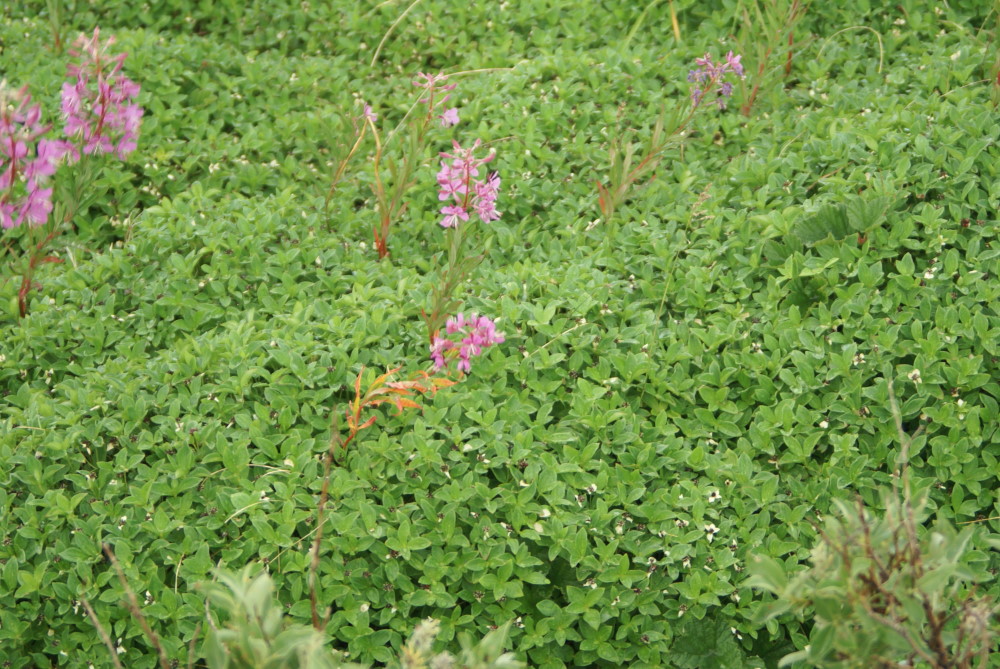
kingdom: Plantae
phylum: Tracheophyta
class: Magnoliopsida
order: Cornales
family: Cornaceae
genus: Cornus
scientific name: Cornus suecica
